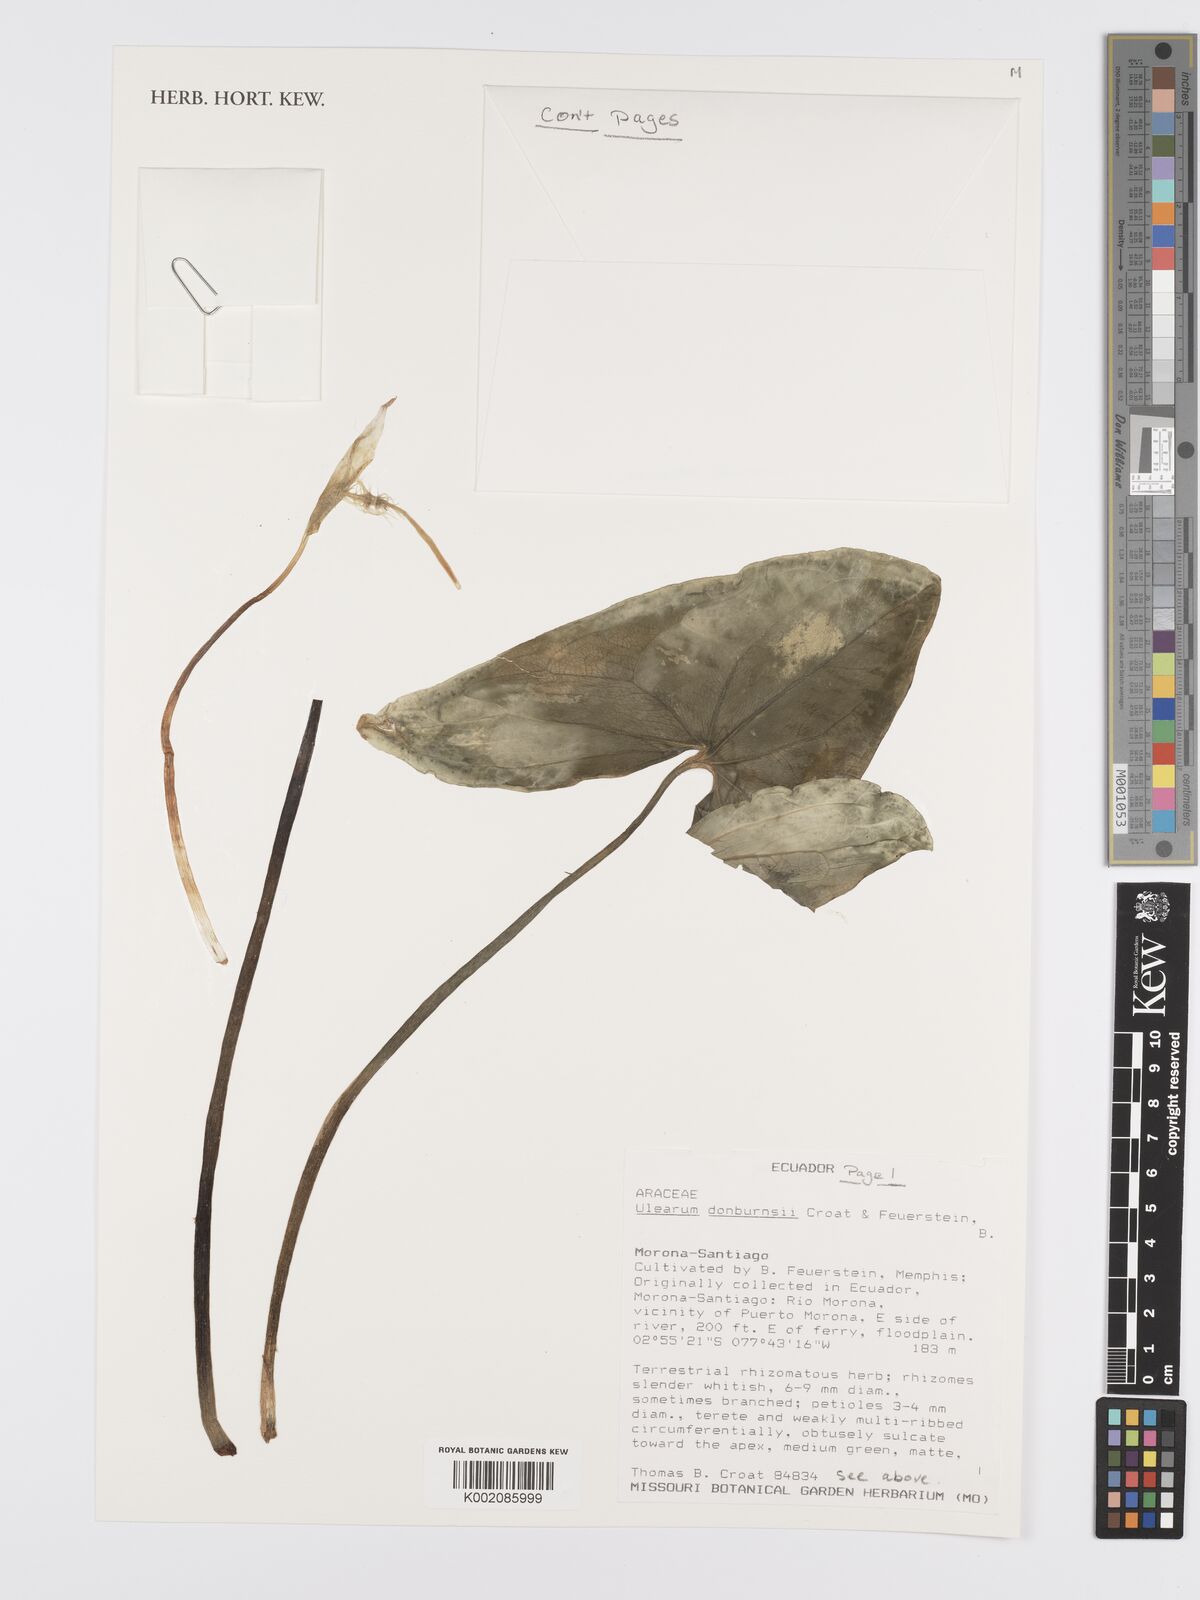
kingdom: Plantae
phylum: Tracheophyta
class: Liliopsida
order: Alismatales
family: Araceae
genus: Anthurium
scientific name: Anthurium
